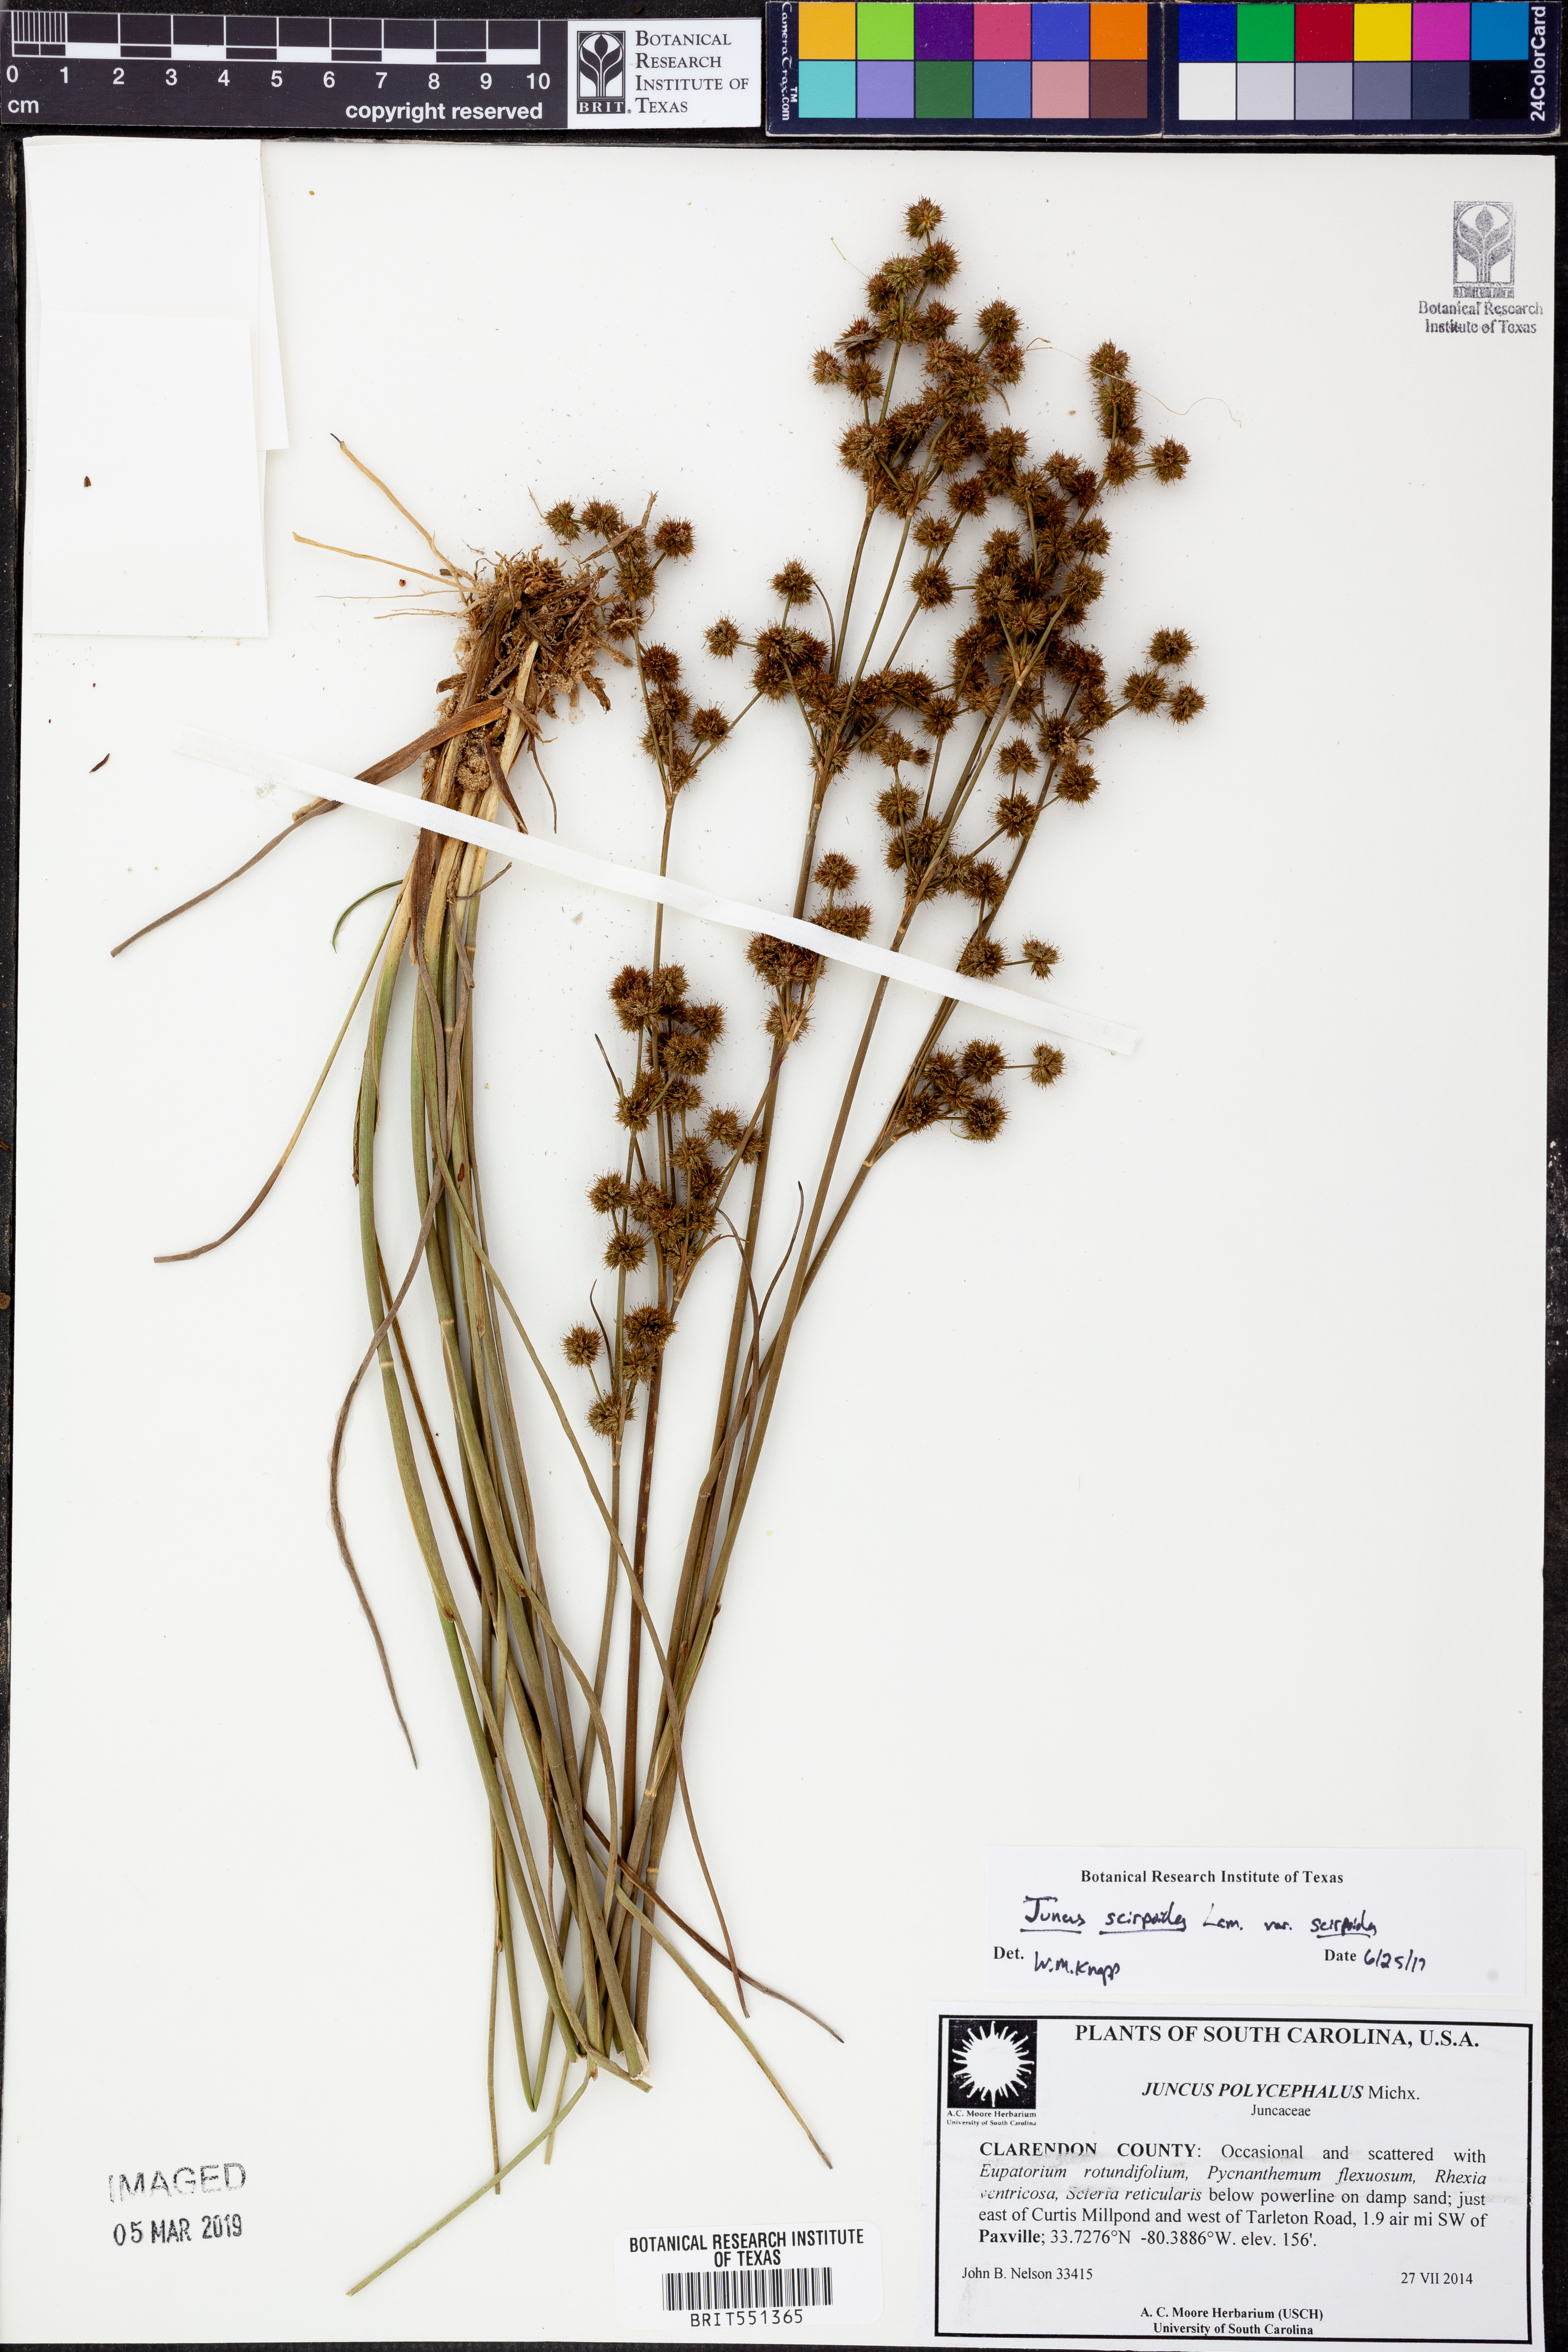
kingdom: Plantae
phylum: Tracheophyta
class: Liliopsida
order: Poales
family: Juncaceae
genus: Juncus
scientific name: Juncus scirpoides
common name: Needlepod rush
